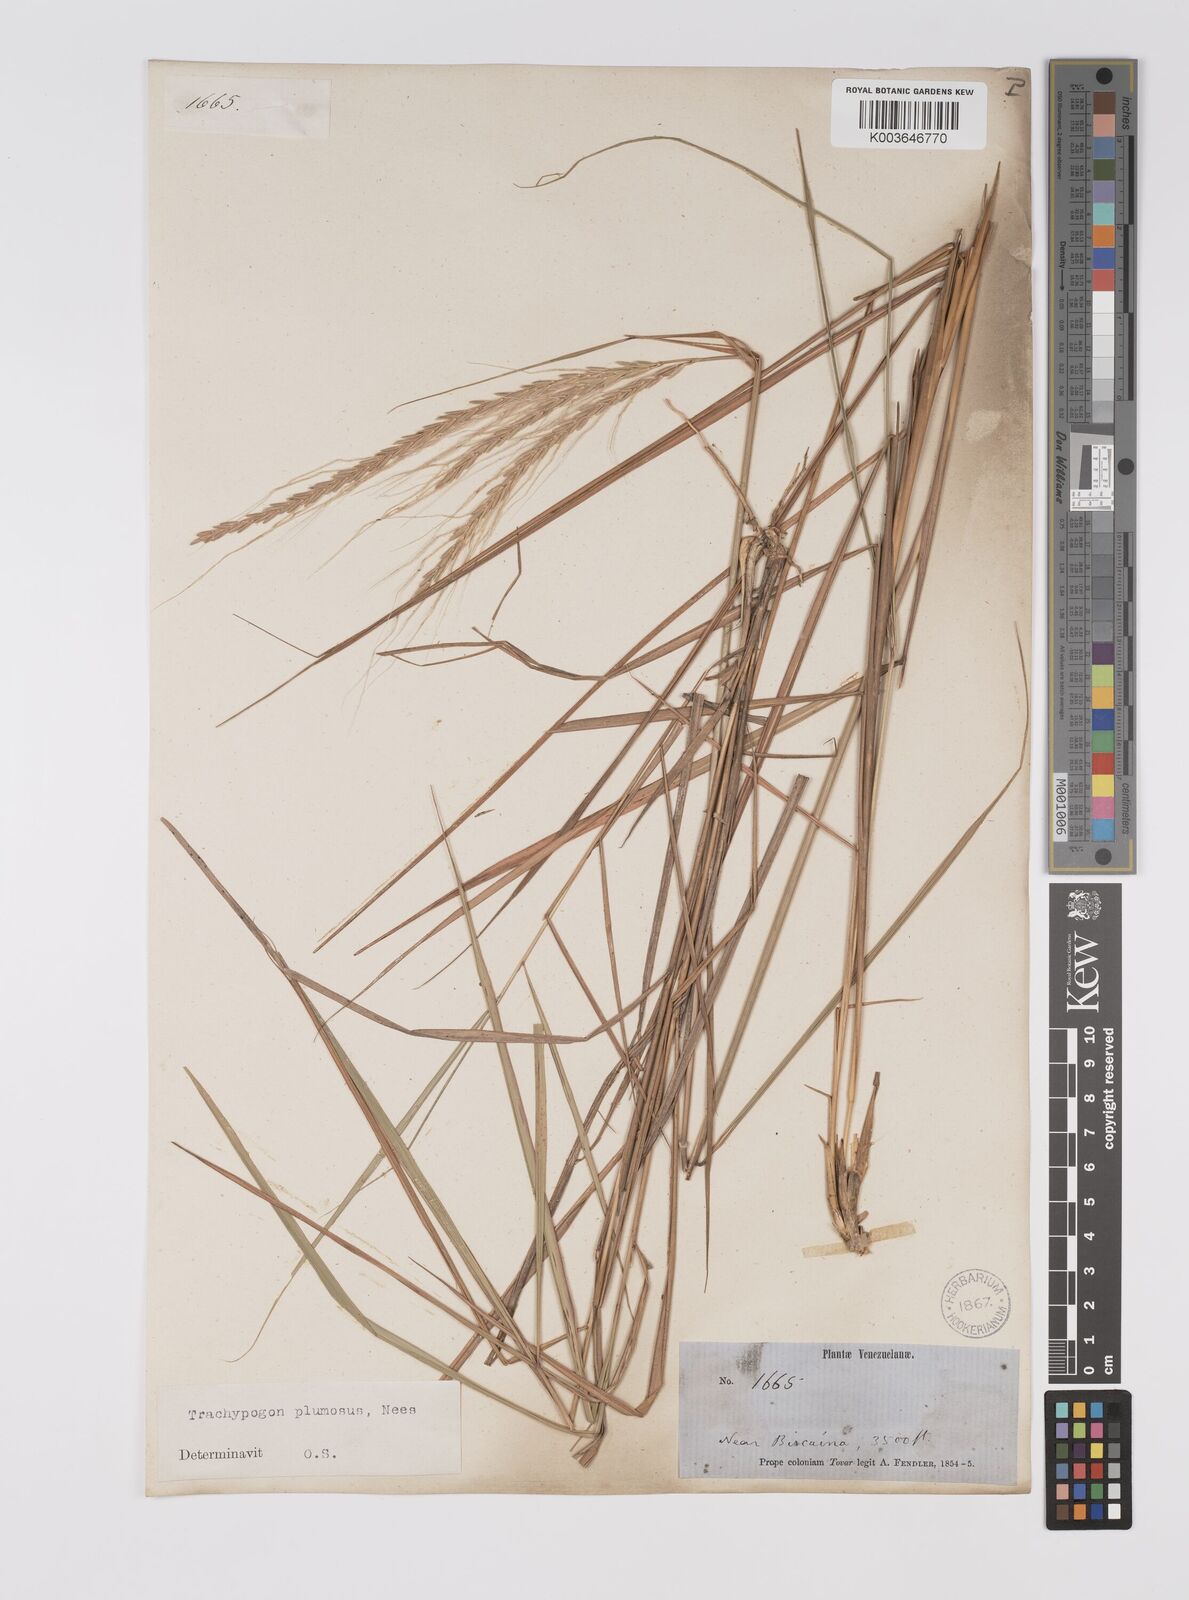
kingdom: Plantae
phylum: Tracheophyta
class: Liliopsida
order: Poales
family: Poaceae
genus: Trachypogon
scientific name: Trachypogon spicatus
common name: Crinkle-awn
